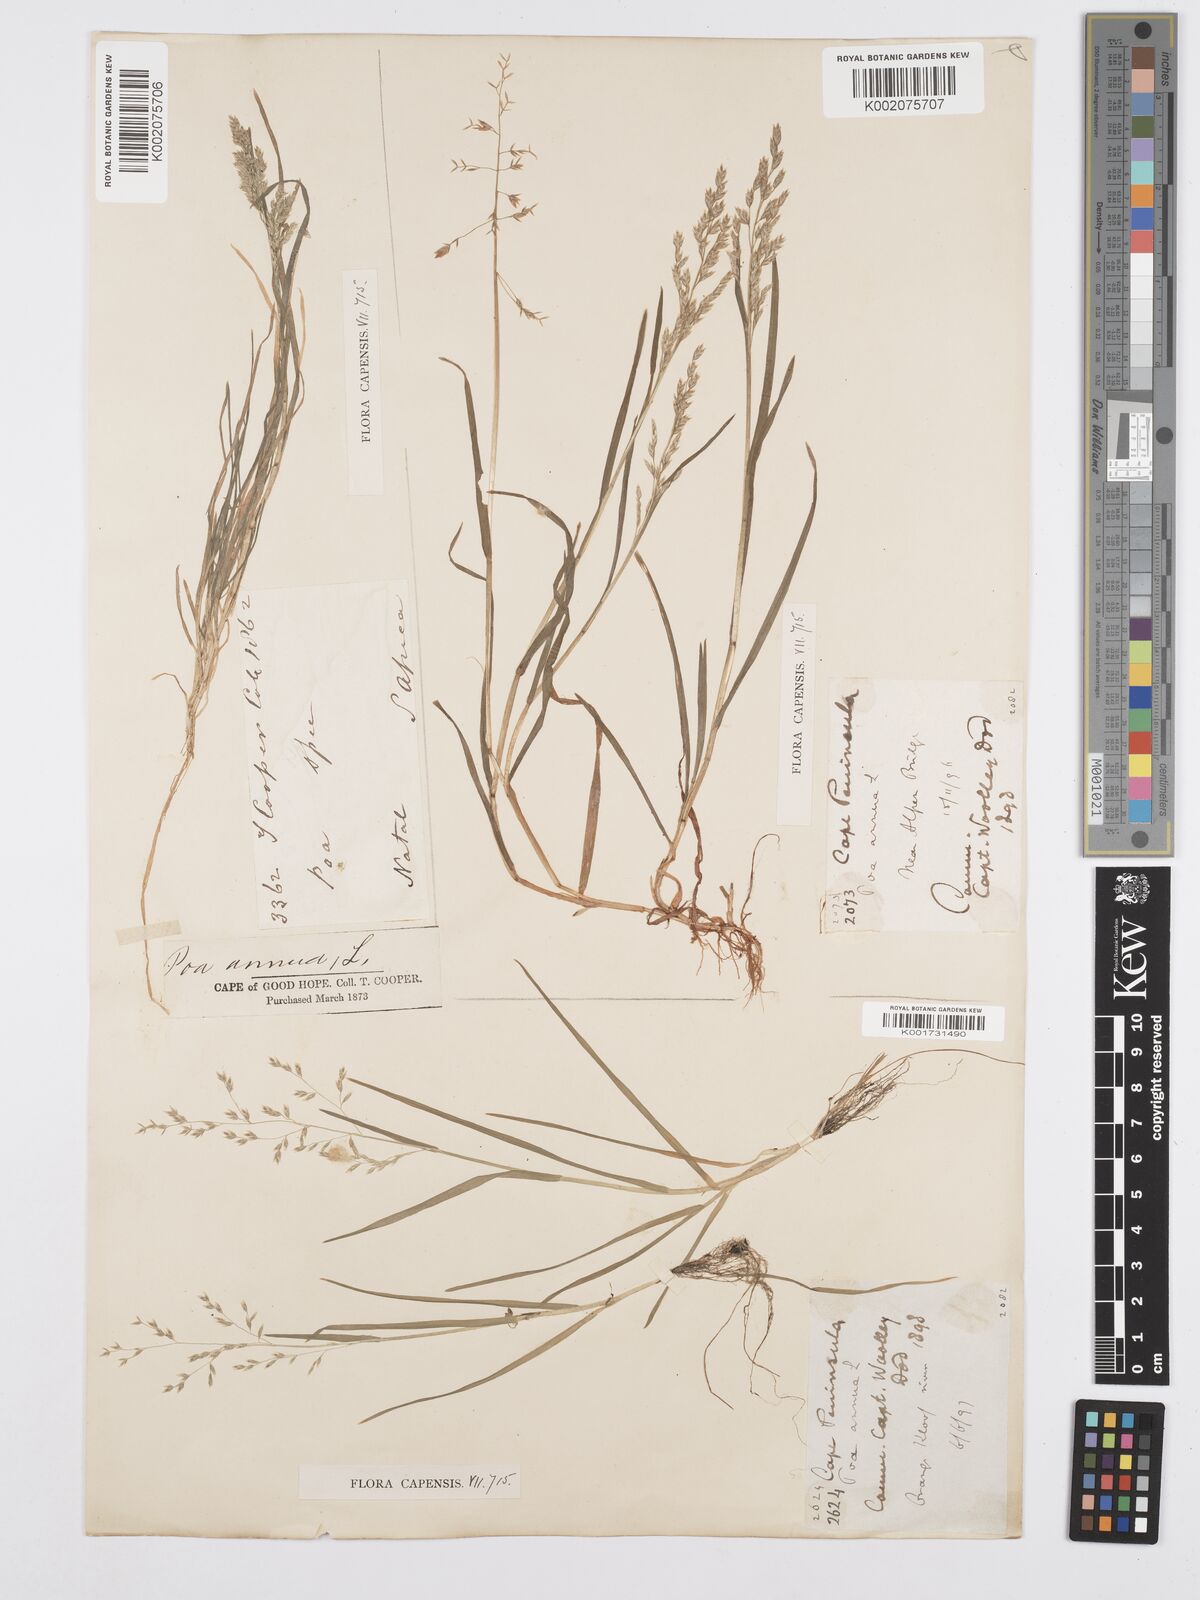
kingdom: Plantae
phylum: Tracheophyta
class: Liliopsida
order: Poales
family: Poaceae
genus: Poa
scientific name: Poa annua
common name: Annual bluegrass
